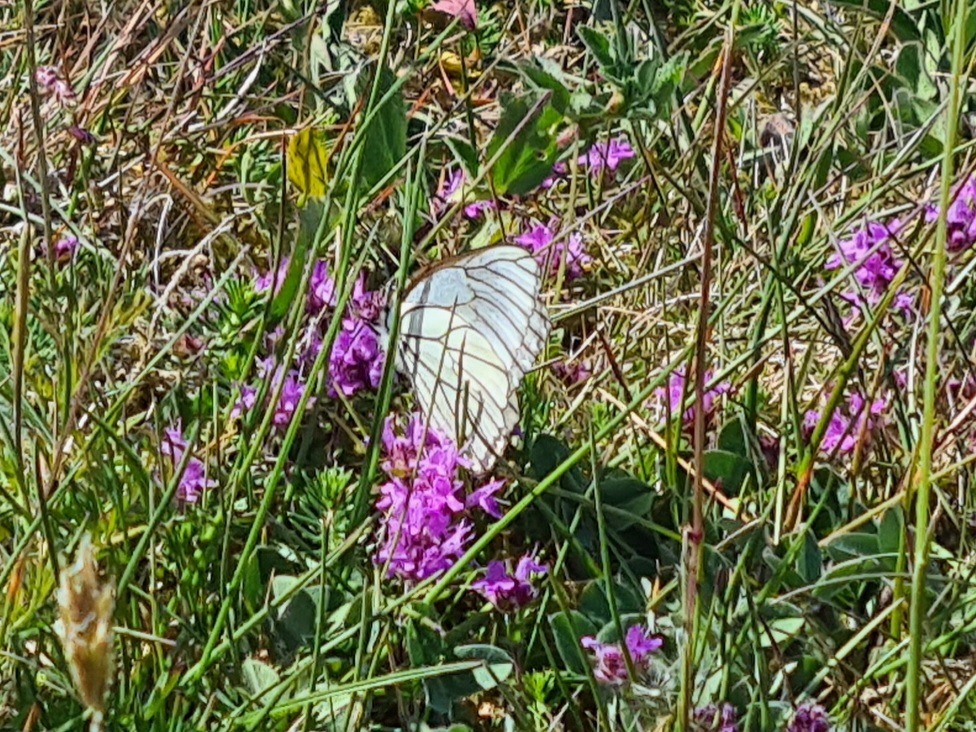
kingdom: Animalia
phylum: Arthropoda
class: Insecta
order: Lepidoptera
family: Pieridae
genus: Aporia
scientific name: Aporia crataegi
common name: Sortåret hvidvinge
